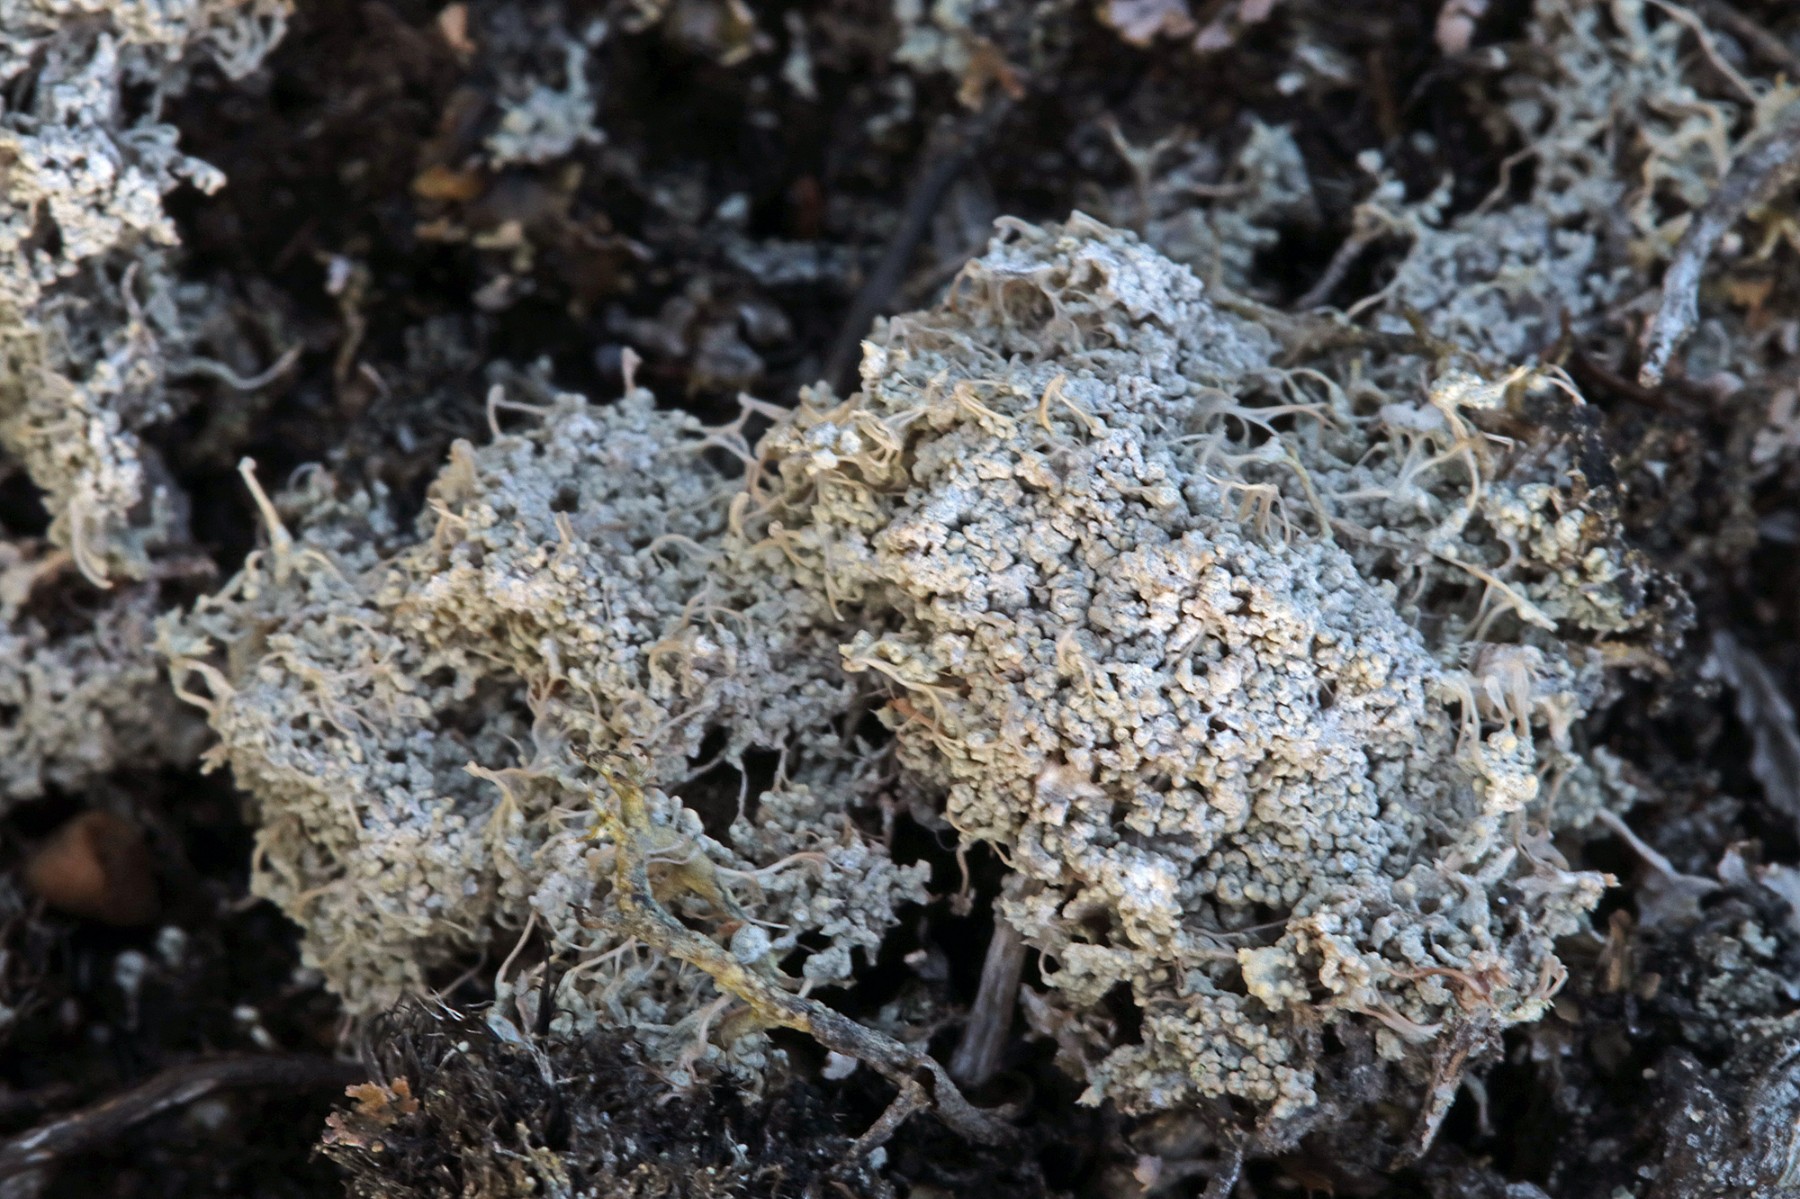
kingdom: Fungi
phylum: Ascomycota
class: Lecanoromycetes
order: Pertusariales
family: Ochrolechiaceae
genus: Ochrolechia
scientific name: Ochrolechia frigida
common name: fjeld-blegskivelav
